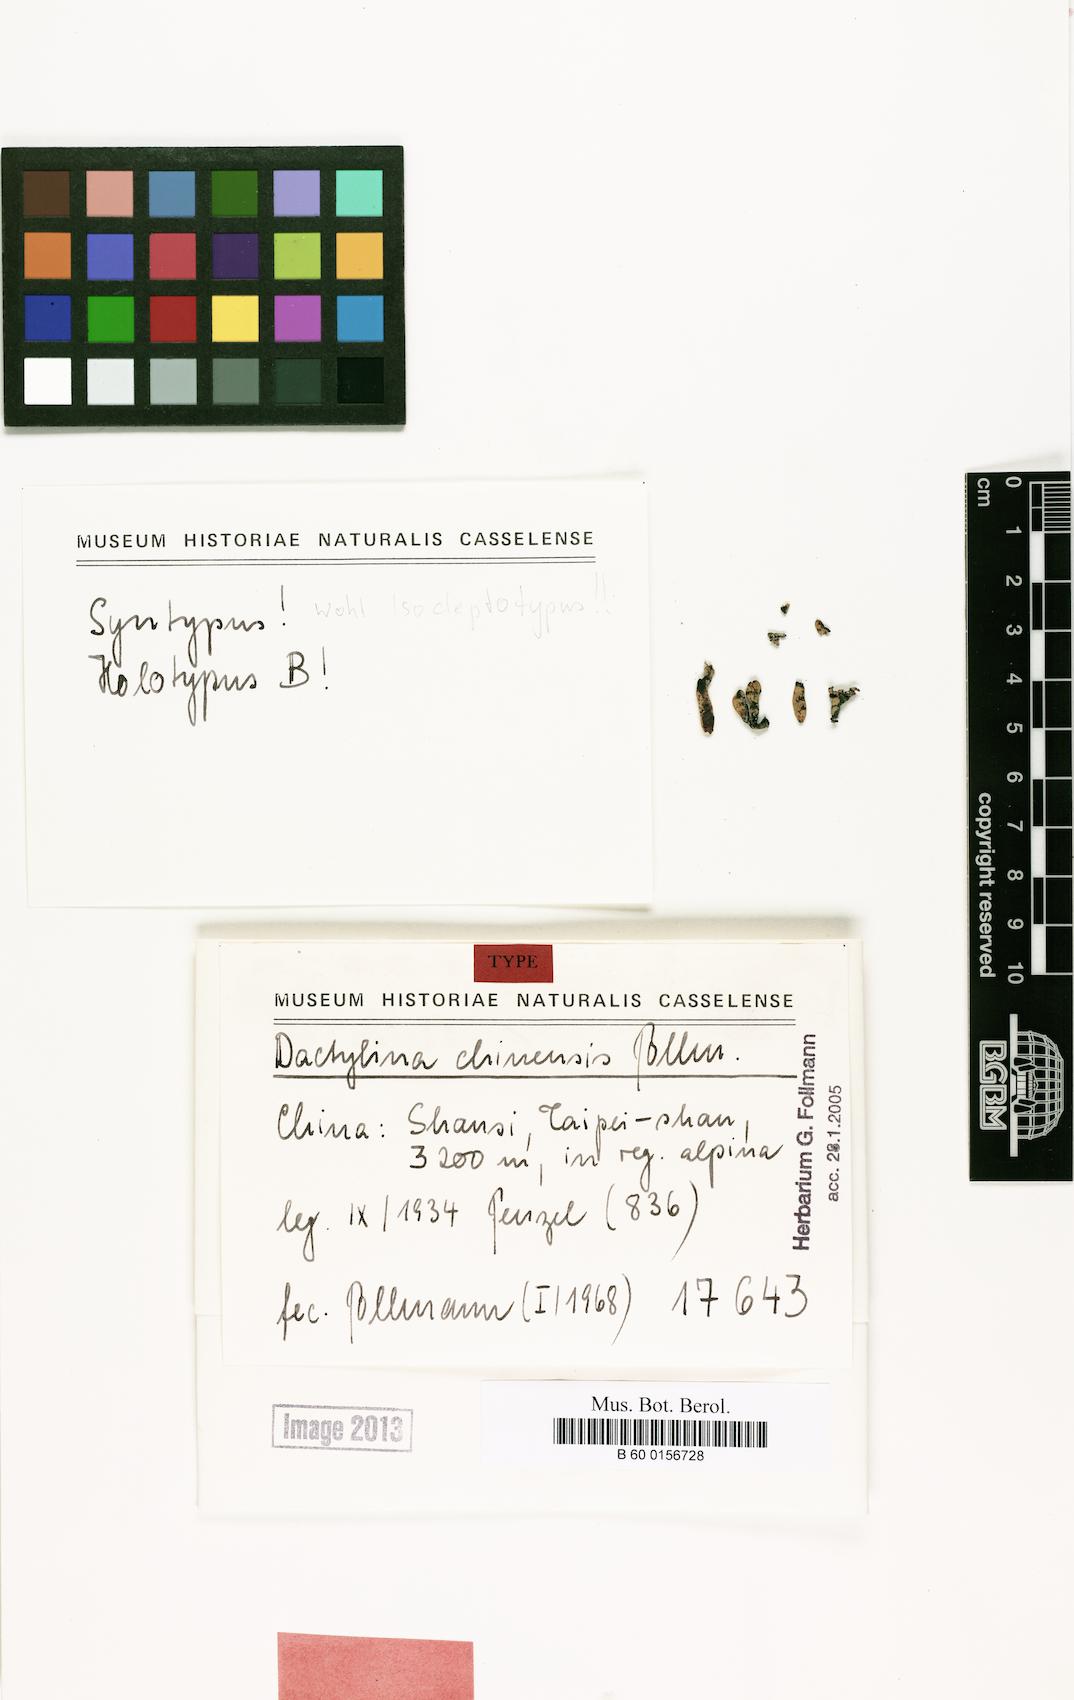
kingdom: Fungi
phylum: Ascomycota
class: Lecanoromycetes
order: Lecanorales
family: Parmeliaceae
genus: Dactylina
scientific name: Dactylina
